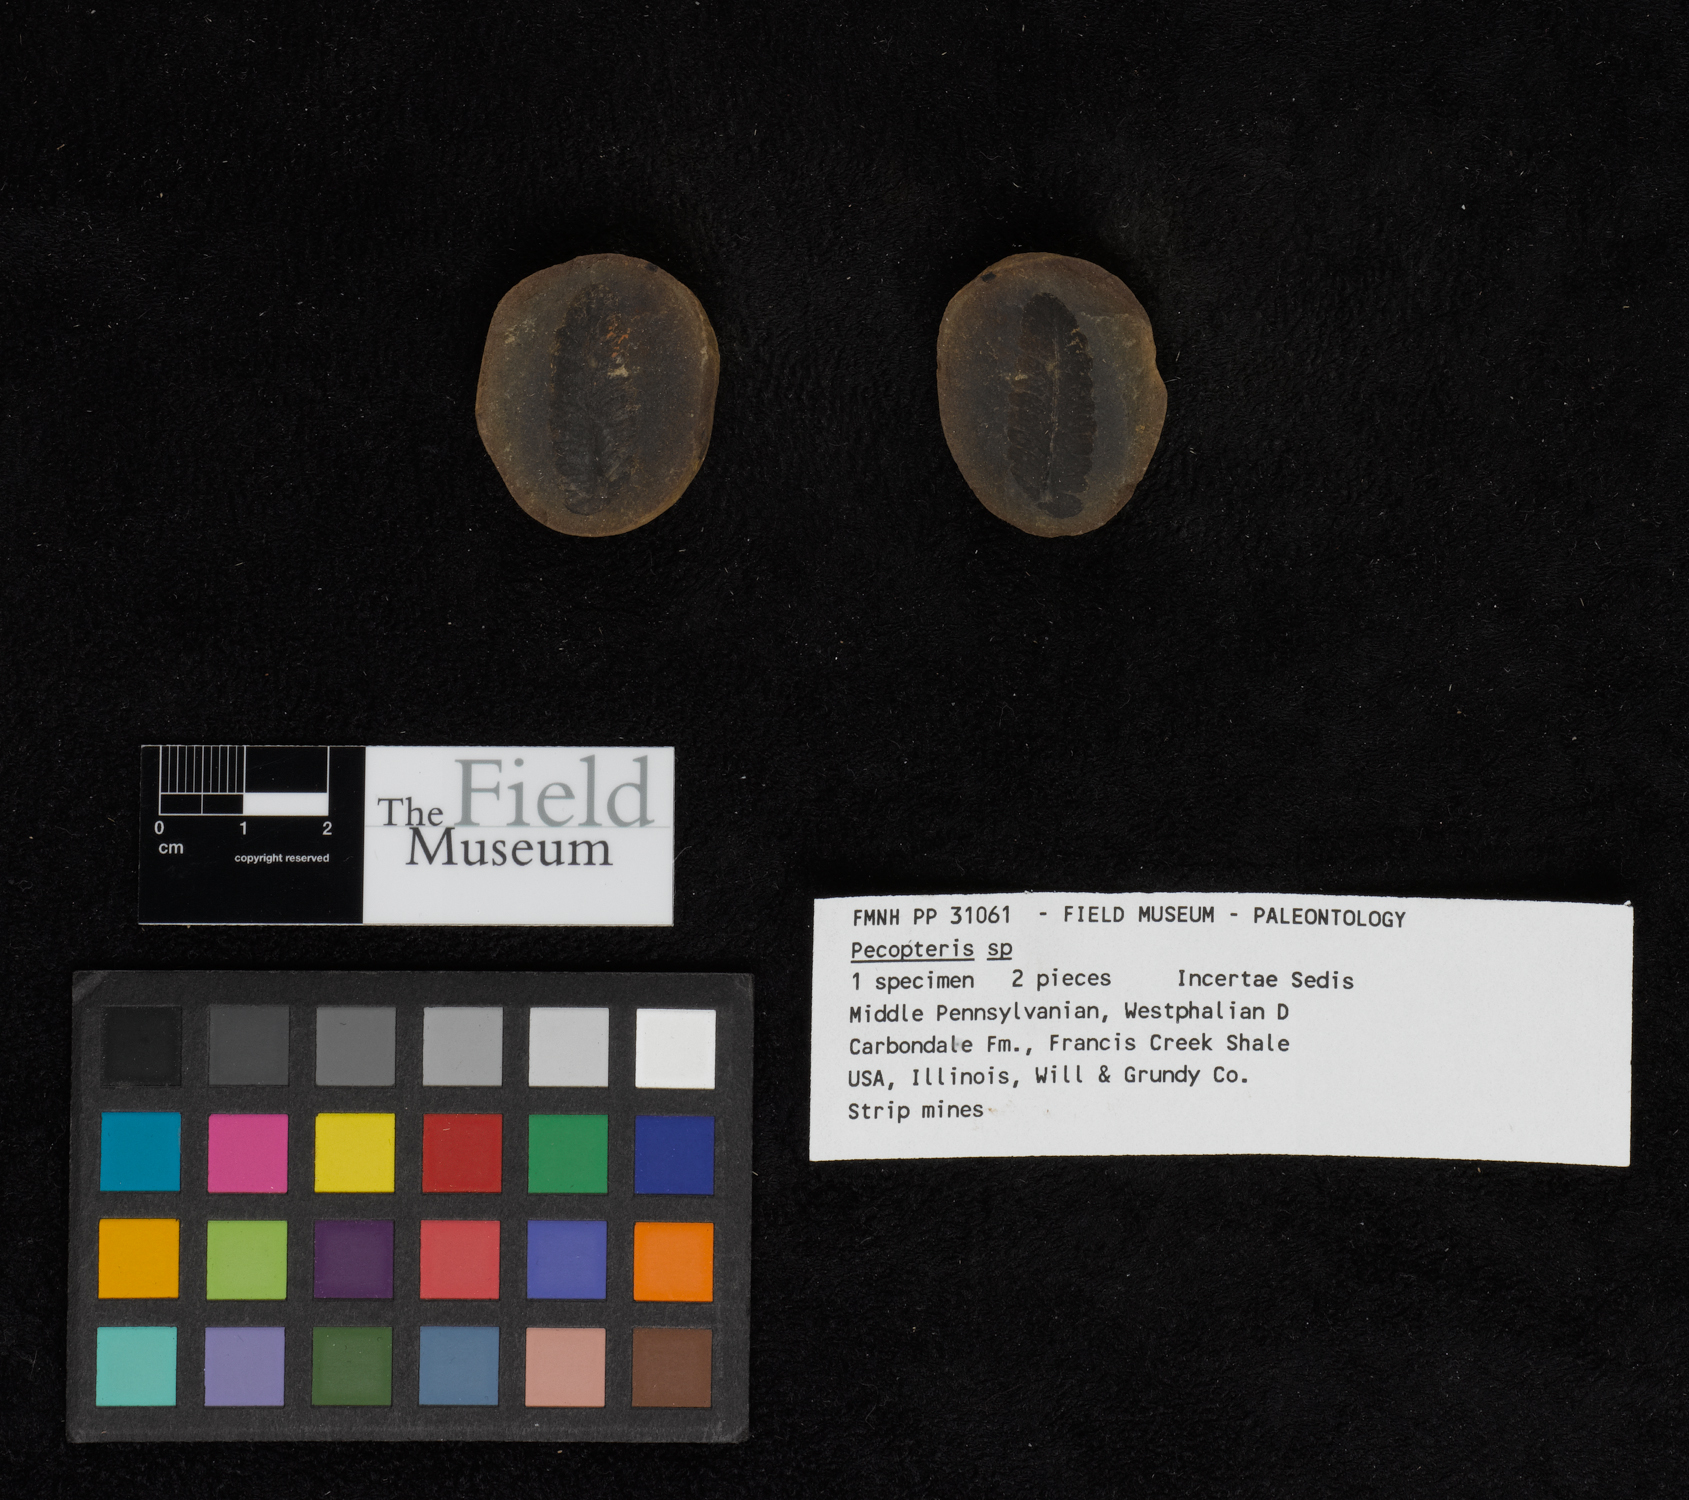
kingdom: Plantae
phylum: Tracheophyta
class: Polypodiopsida
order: Marattiales
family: Asterothecaceae
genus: Pecopteris
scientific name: Pecopteris
